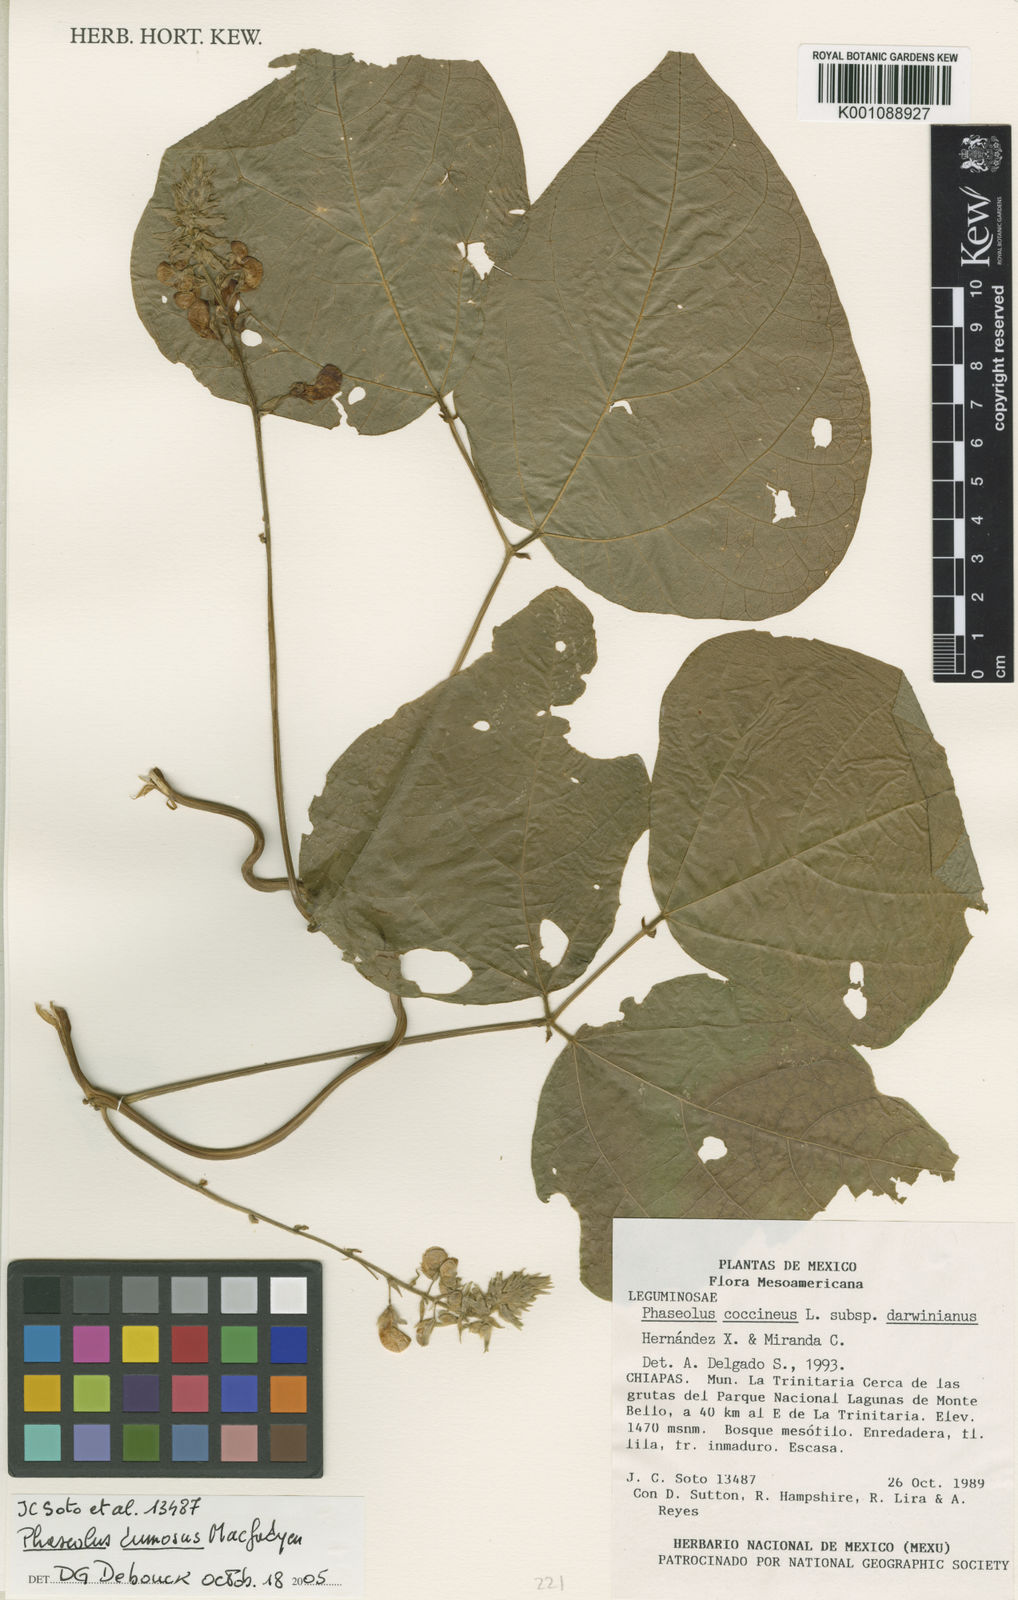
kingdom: Plantae
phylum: Tracheophyta
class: Magnoliopsida
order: Fabales
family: Fabaceae
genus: Phaseolus
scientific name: Phaseolus
